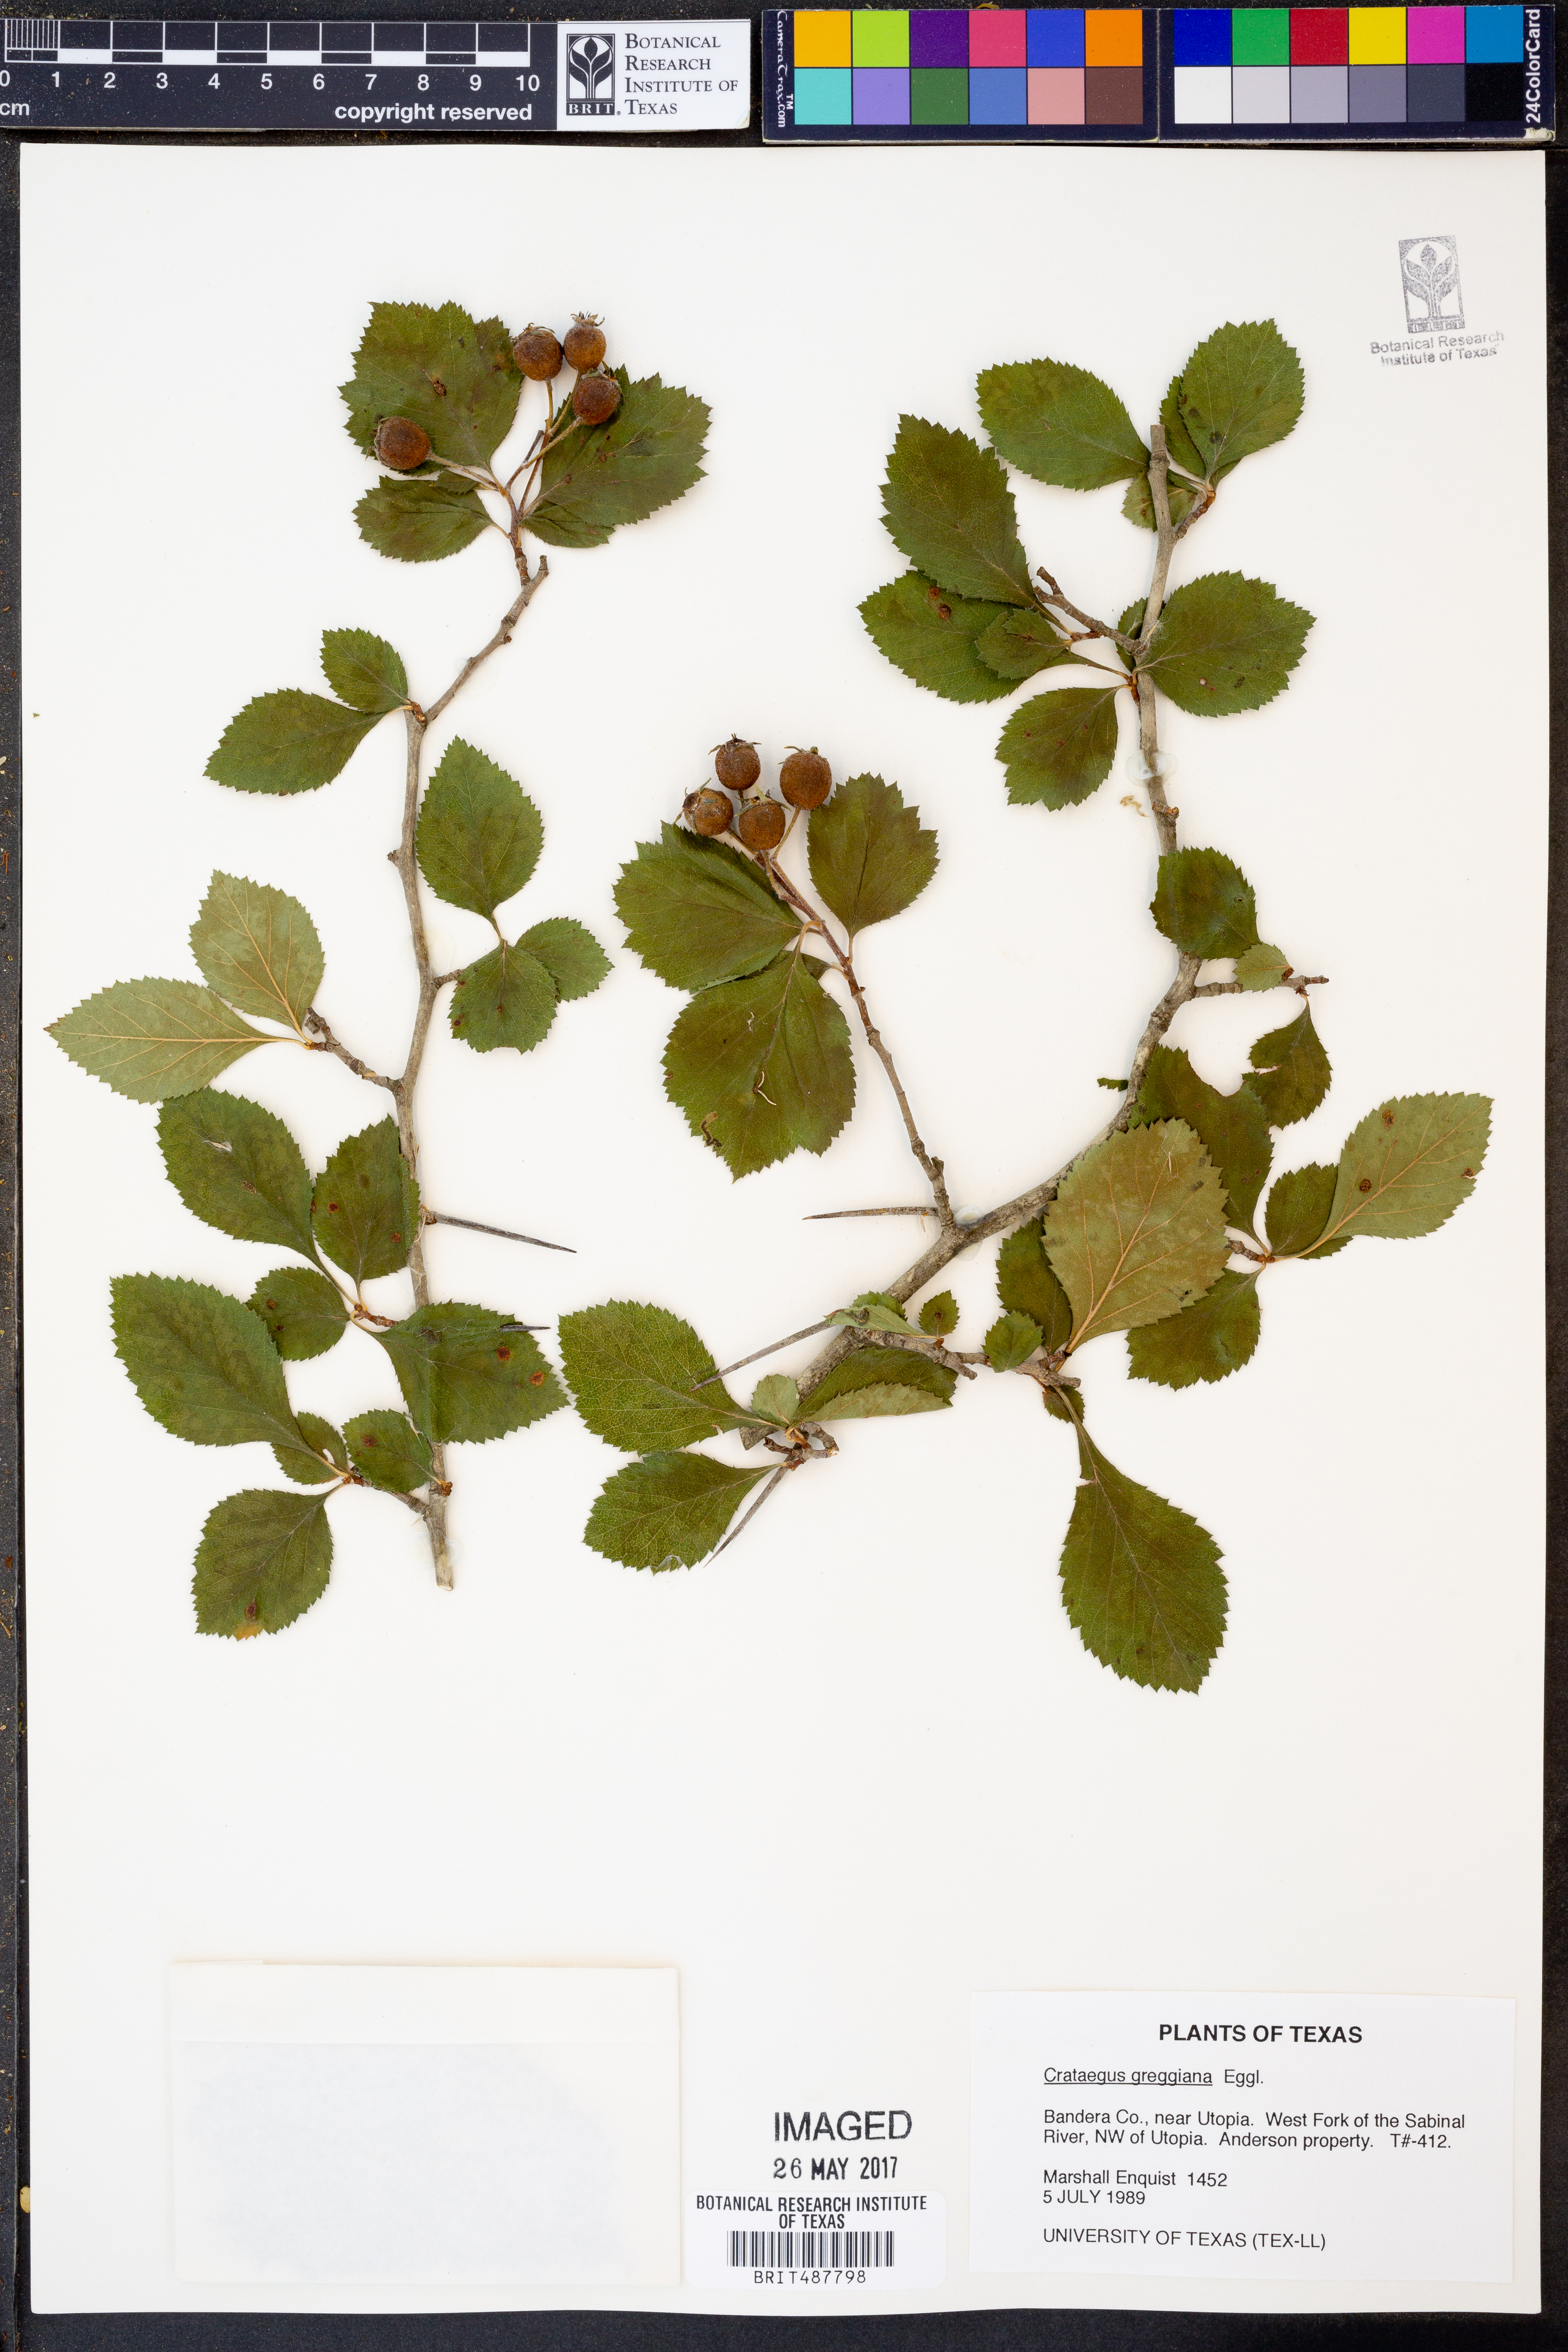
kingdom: Plantae
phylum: Tracheophyta
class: Magnoliopsida
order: Rosales
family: Rosaceae
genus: Crataegus
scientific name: Crataegus greggiana
